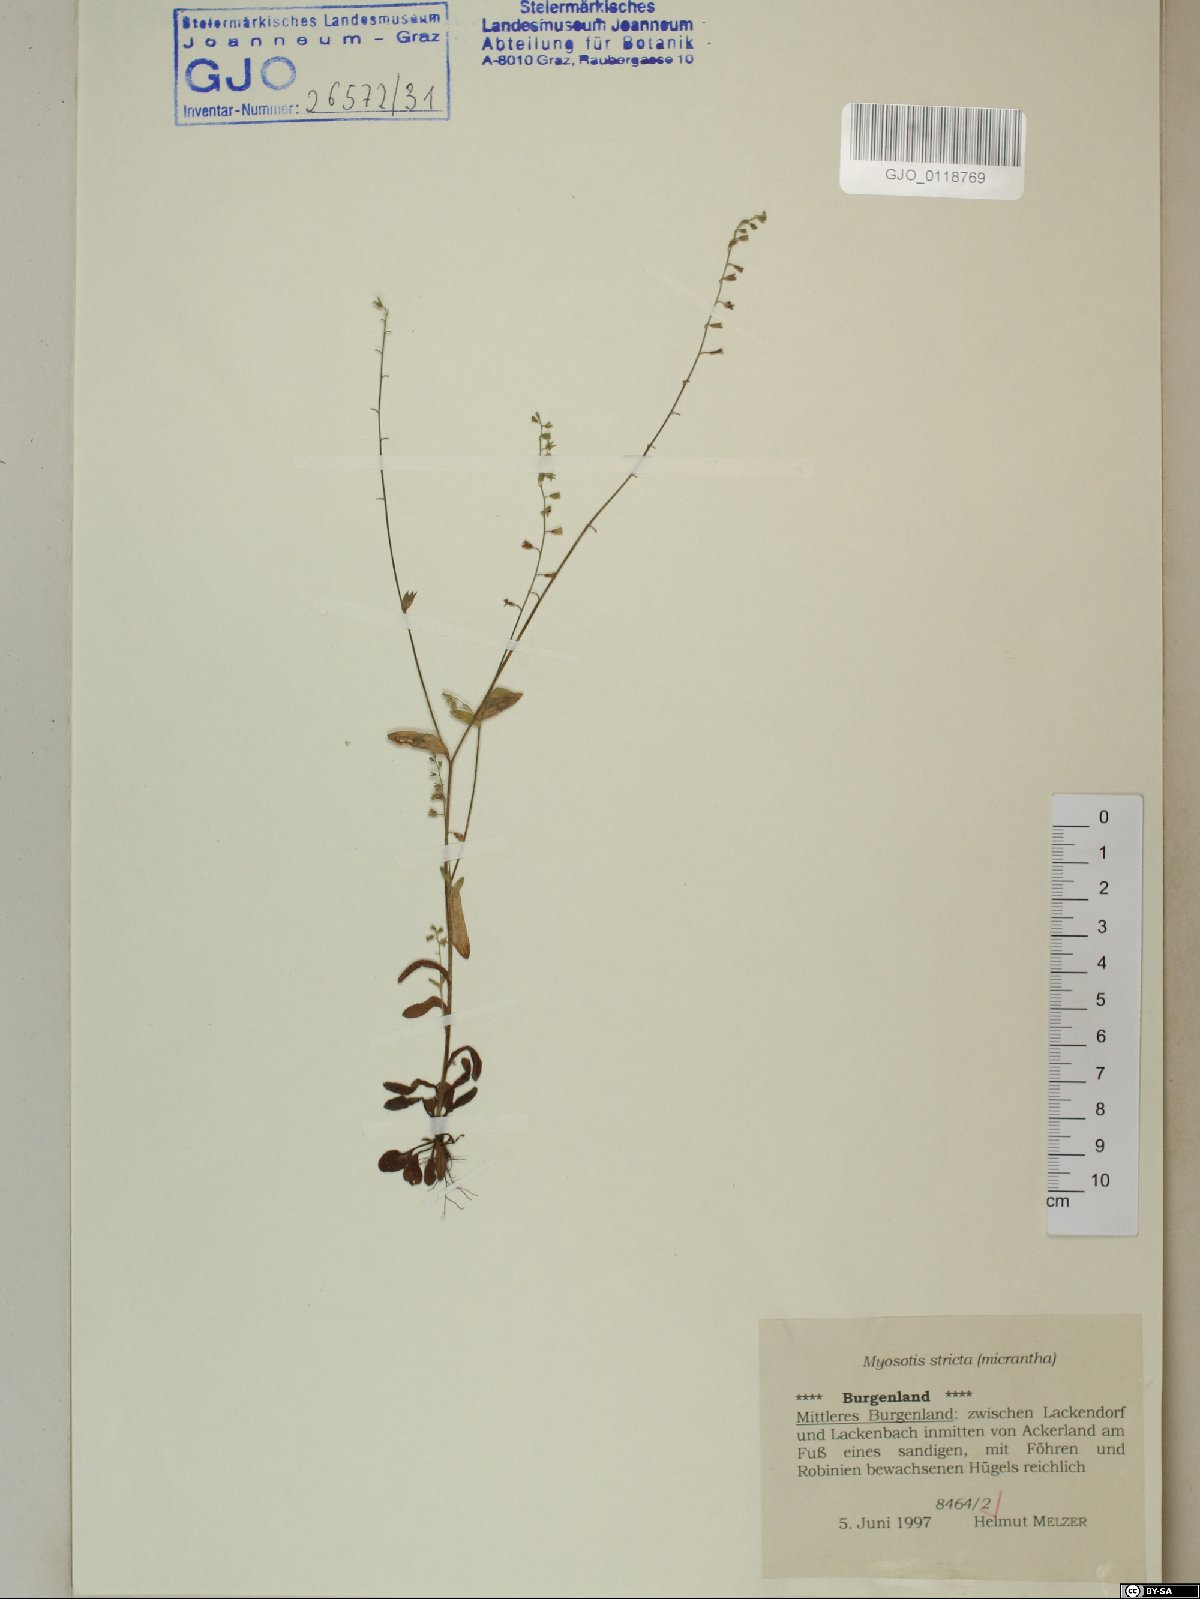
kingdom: Plantae
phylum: Tracheophyta
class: Magnoliopsida
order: Boraginales
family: Boraginaceae
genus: Myosotis
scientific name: Myosotis stricta
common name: Strict forget-me-not
